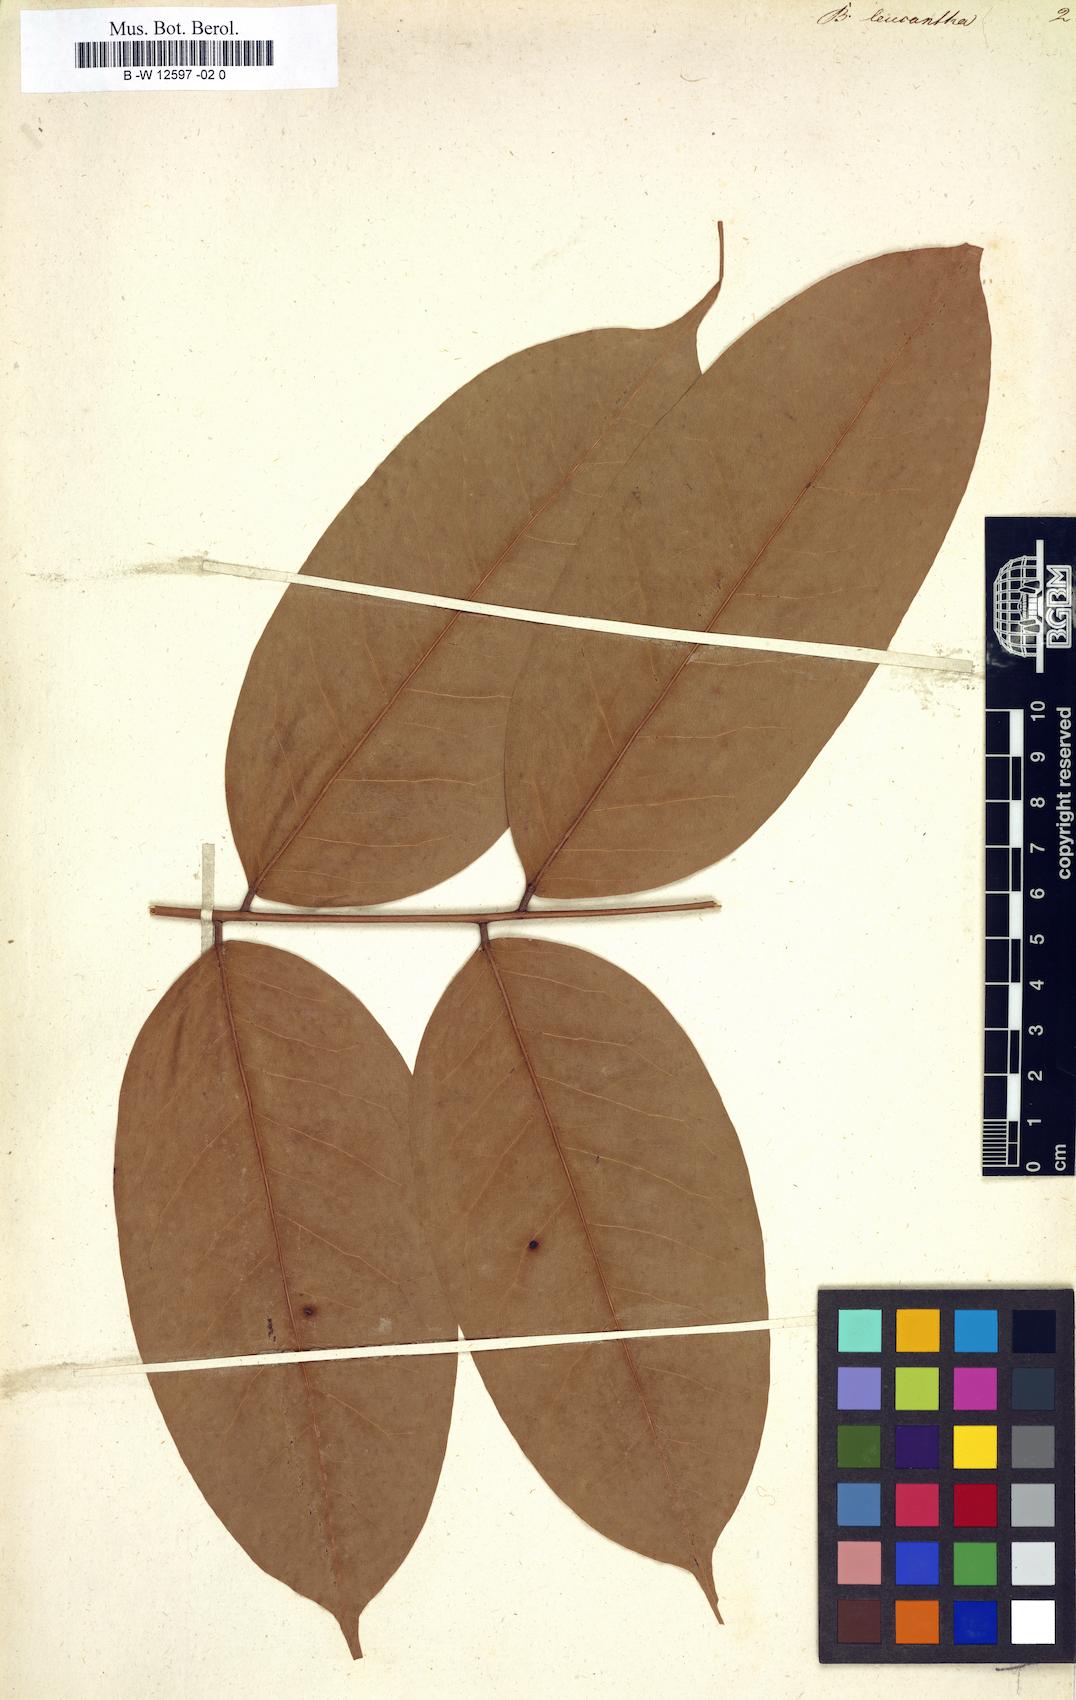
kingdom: Plantae
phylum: Tracheophyta
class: Magnoliopsida
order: Fabales
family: Fabaceae
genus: Brownea
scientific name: Brownea leucantha
